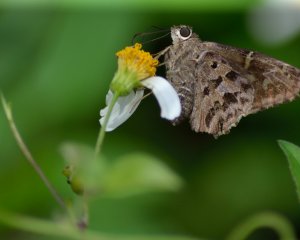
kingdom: Animalia
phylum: Arthropoda
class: Insecta
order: Lepidoptera
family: Hesperiidae
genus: Urbanus
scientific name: Urbanus dorantes
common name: Dorantes Longtail
